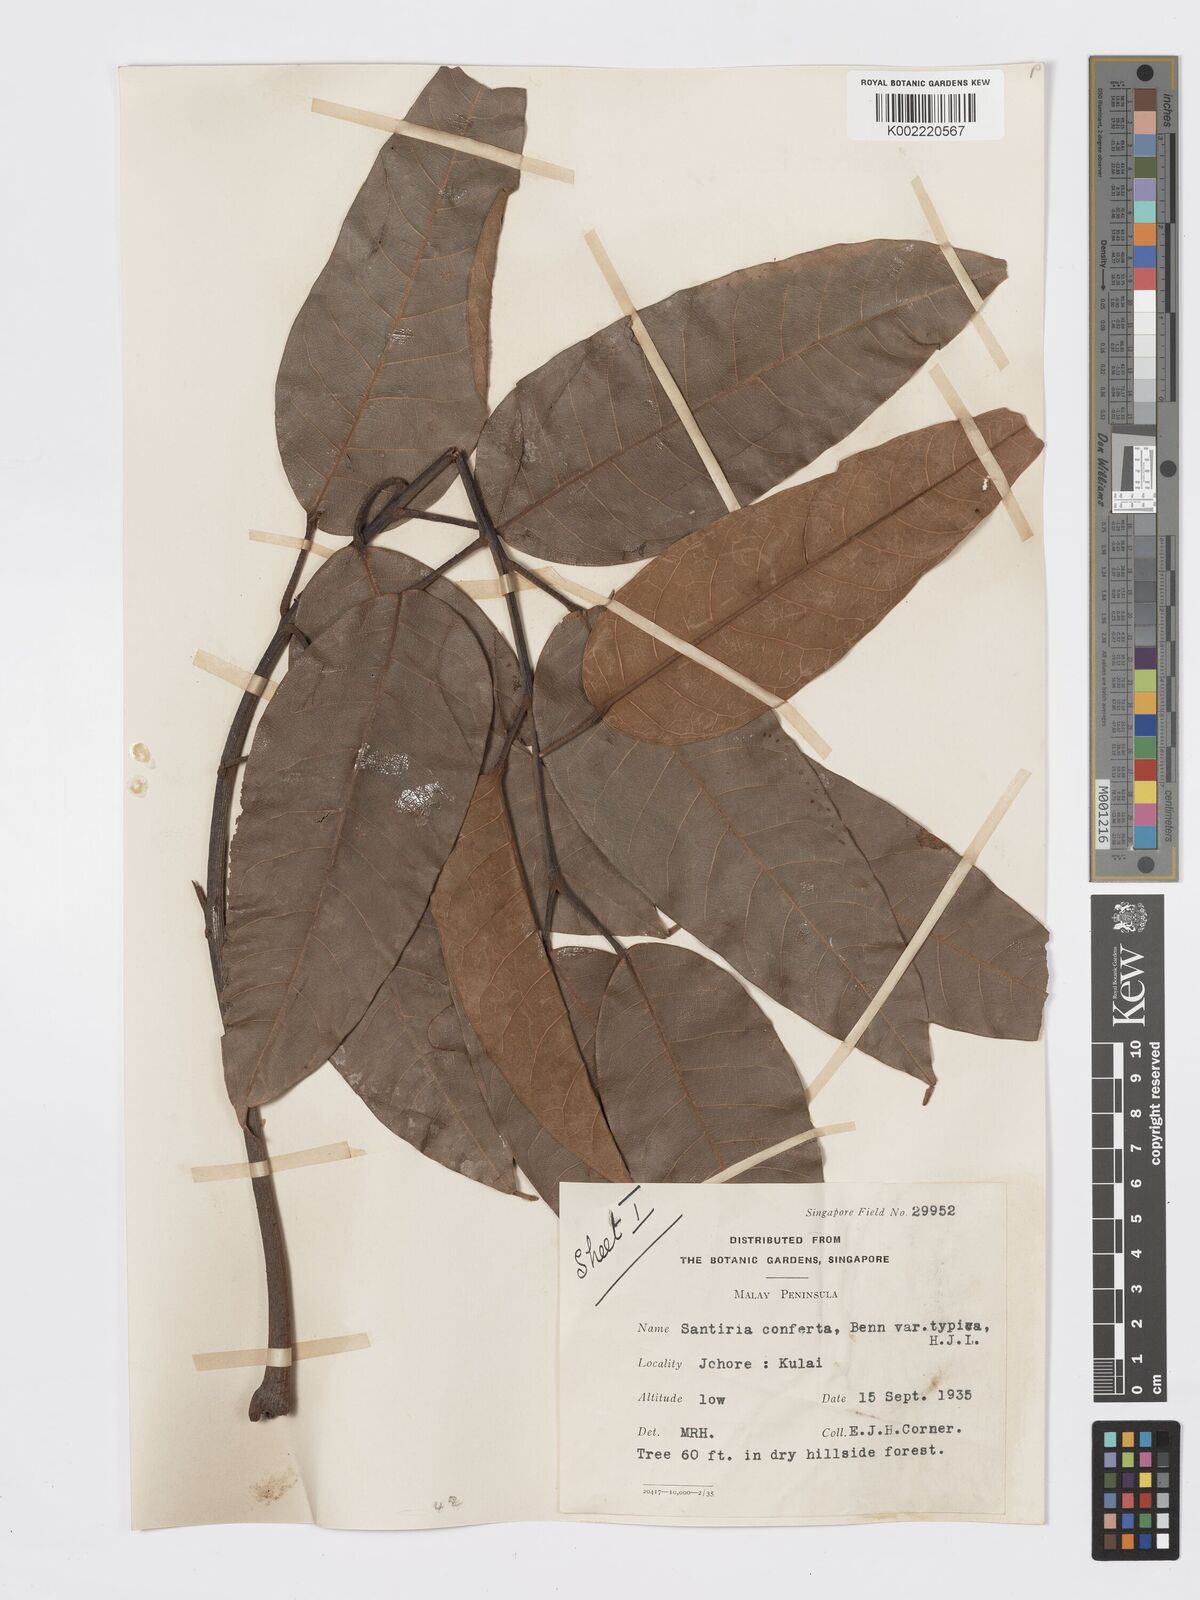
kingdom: Plantae
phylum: Tracheophyta
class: Magnoliopsida
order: Sapindales
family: Burseraceae
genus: Santiria
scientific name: Santiria conferta
